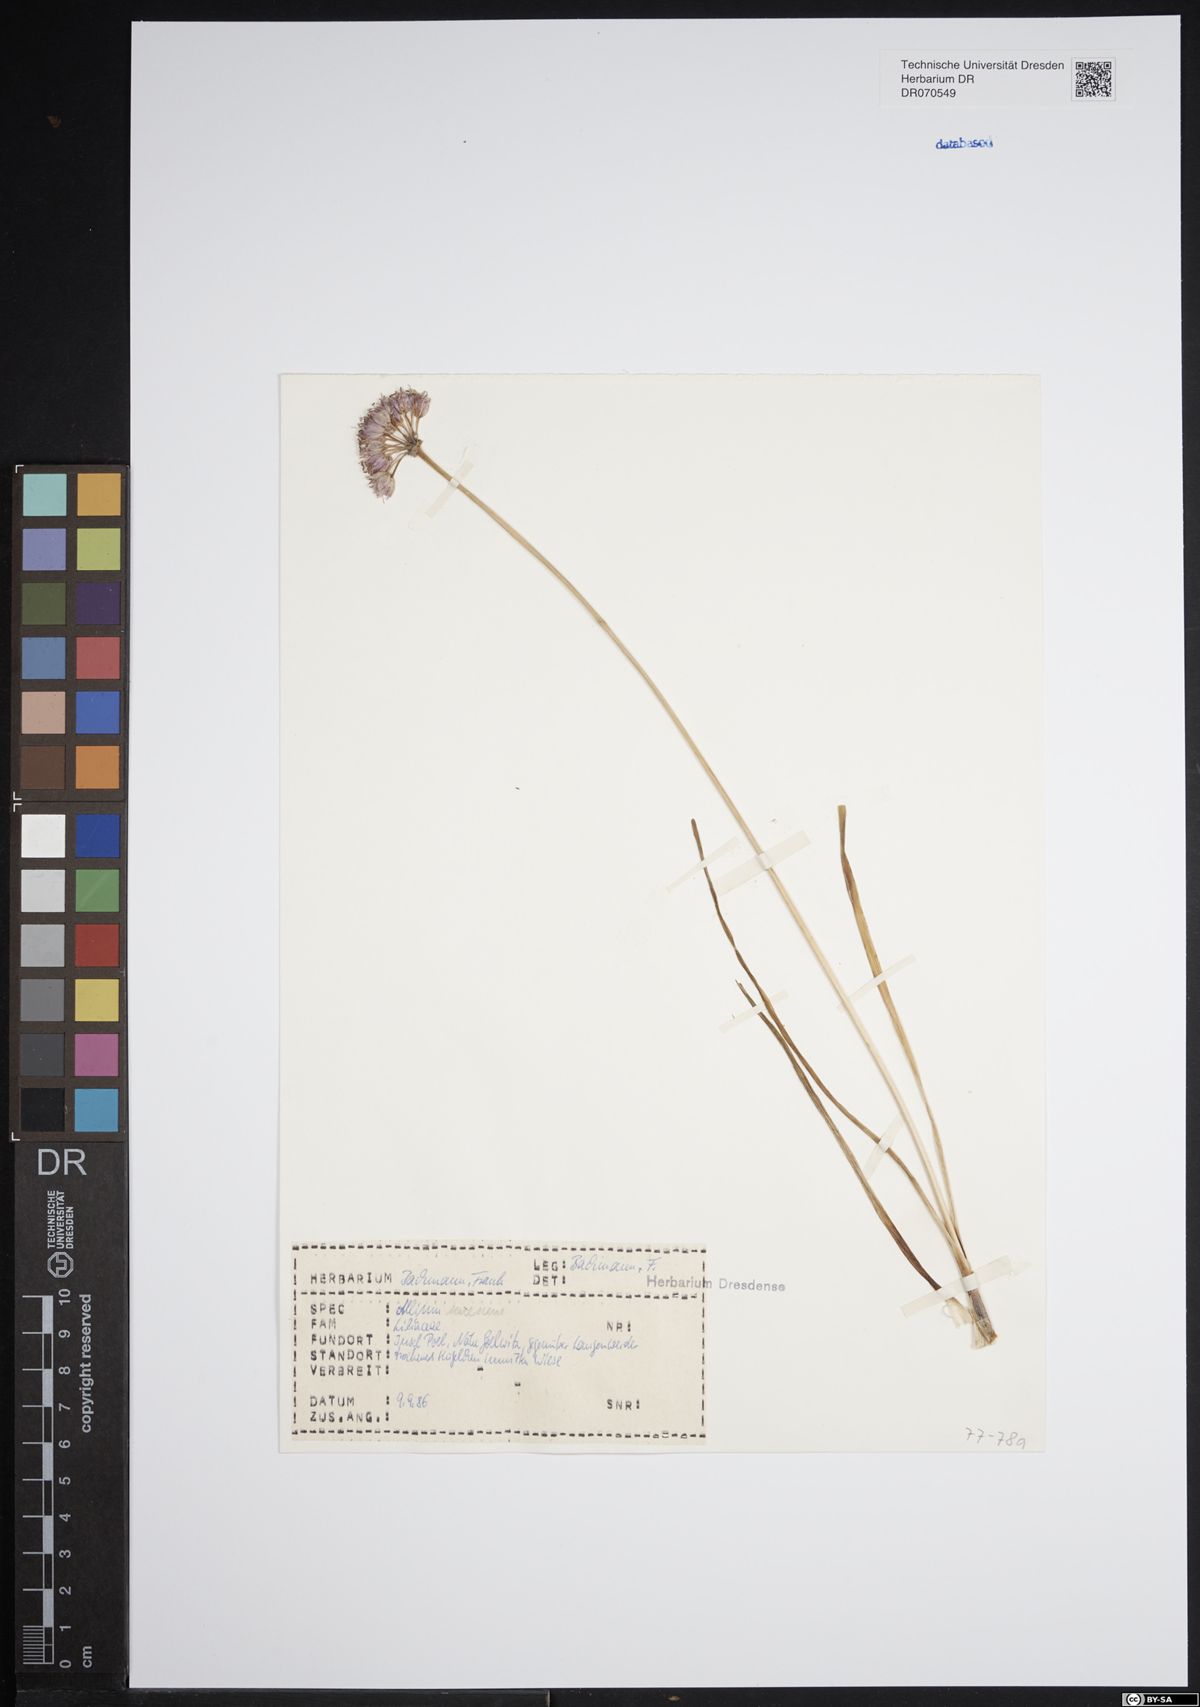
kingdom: Plantae
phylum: Tracheophyta
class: Liliopsida
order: Asparagales
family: Amaryllidaceae
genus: Allium
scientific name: Allium senescens
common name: German garlic
